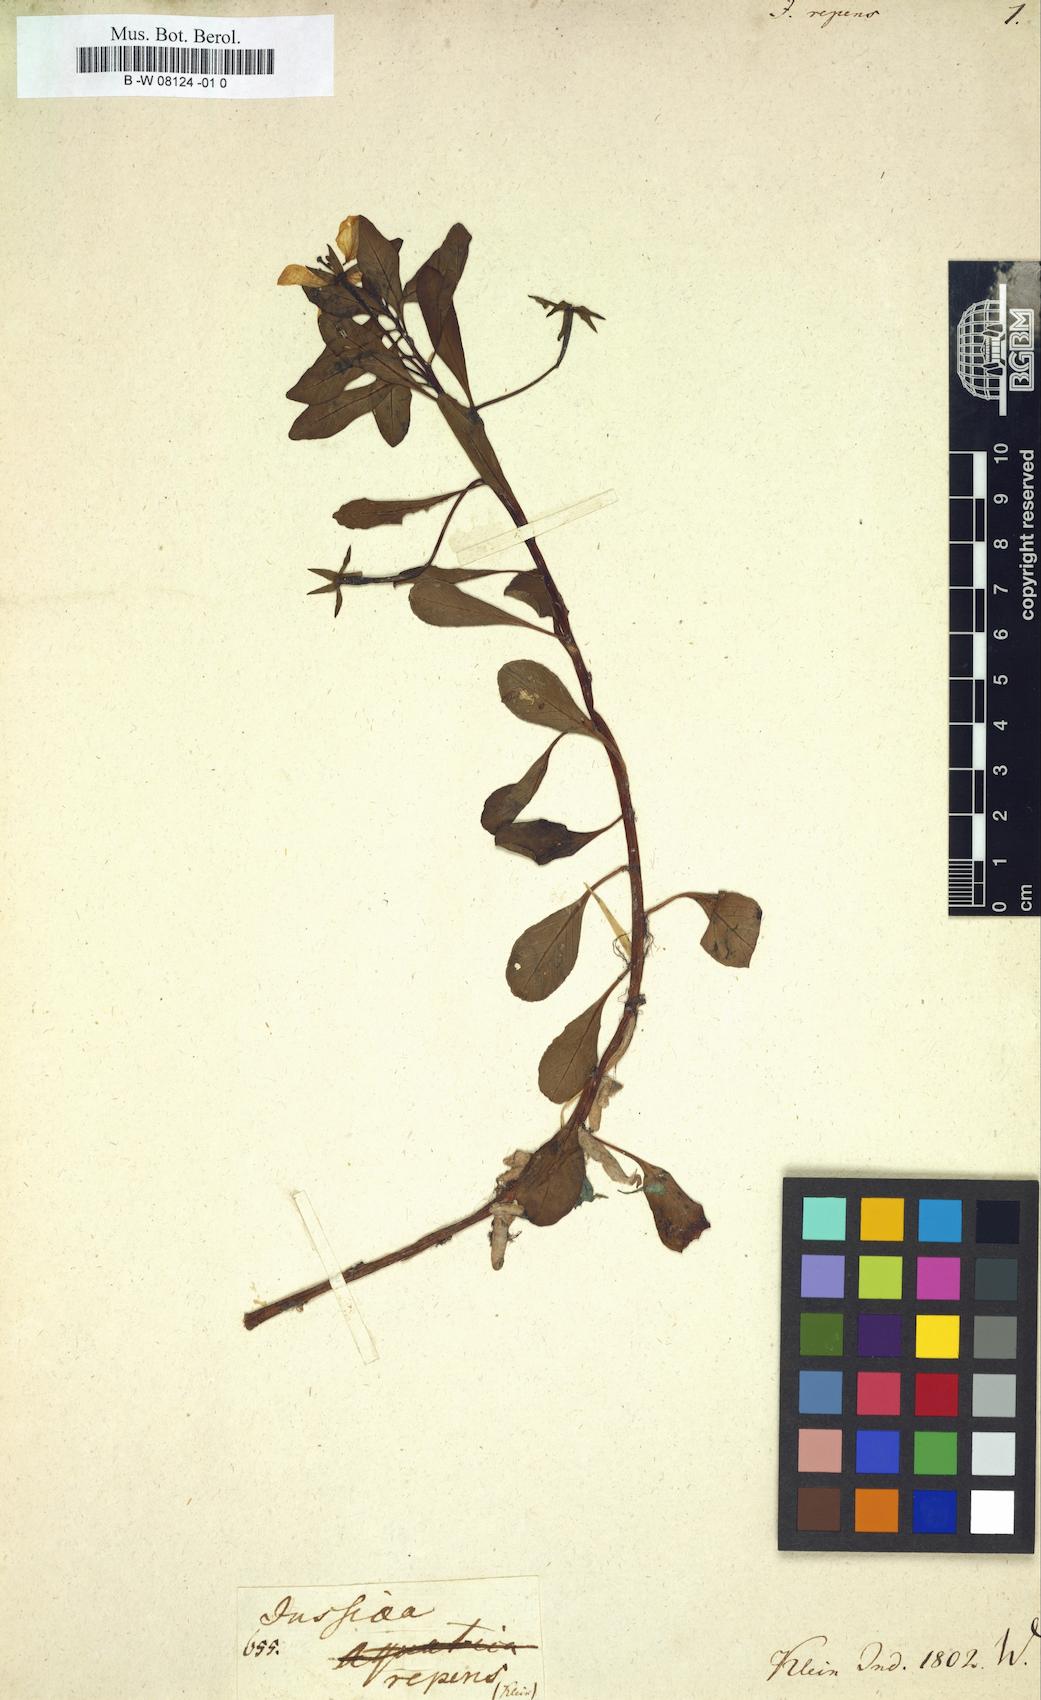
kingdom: Plantae
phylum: Tracheophyta
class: Magnoliopsida
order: Myrtales
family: Onagraceae
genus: Ludwigia
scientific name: Ludwigia adscendens
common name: Creeping water primrose
